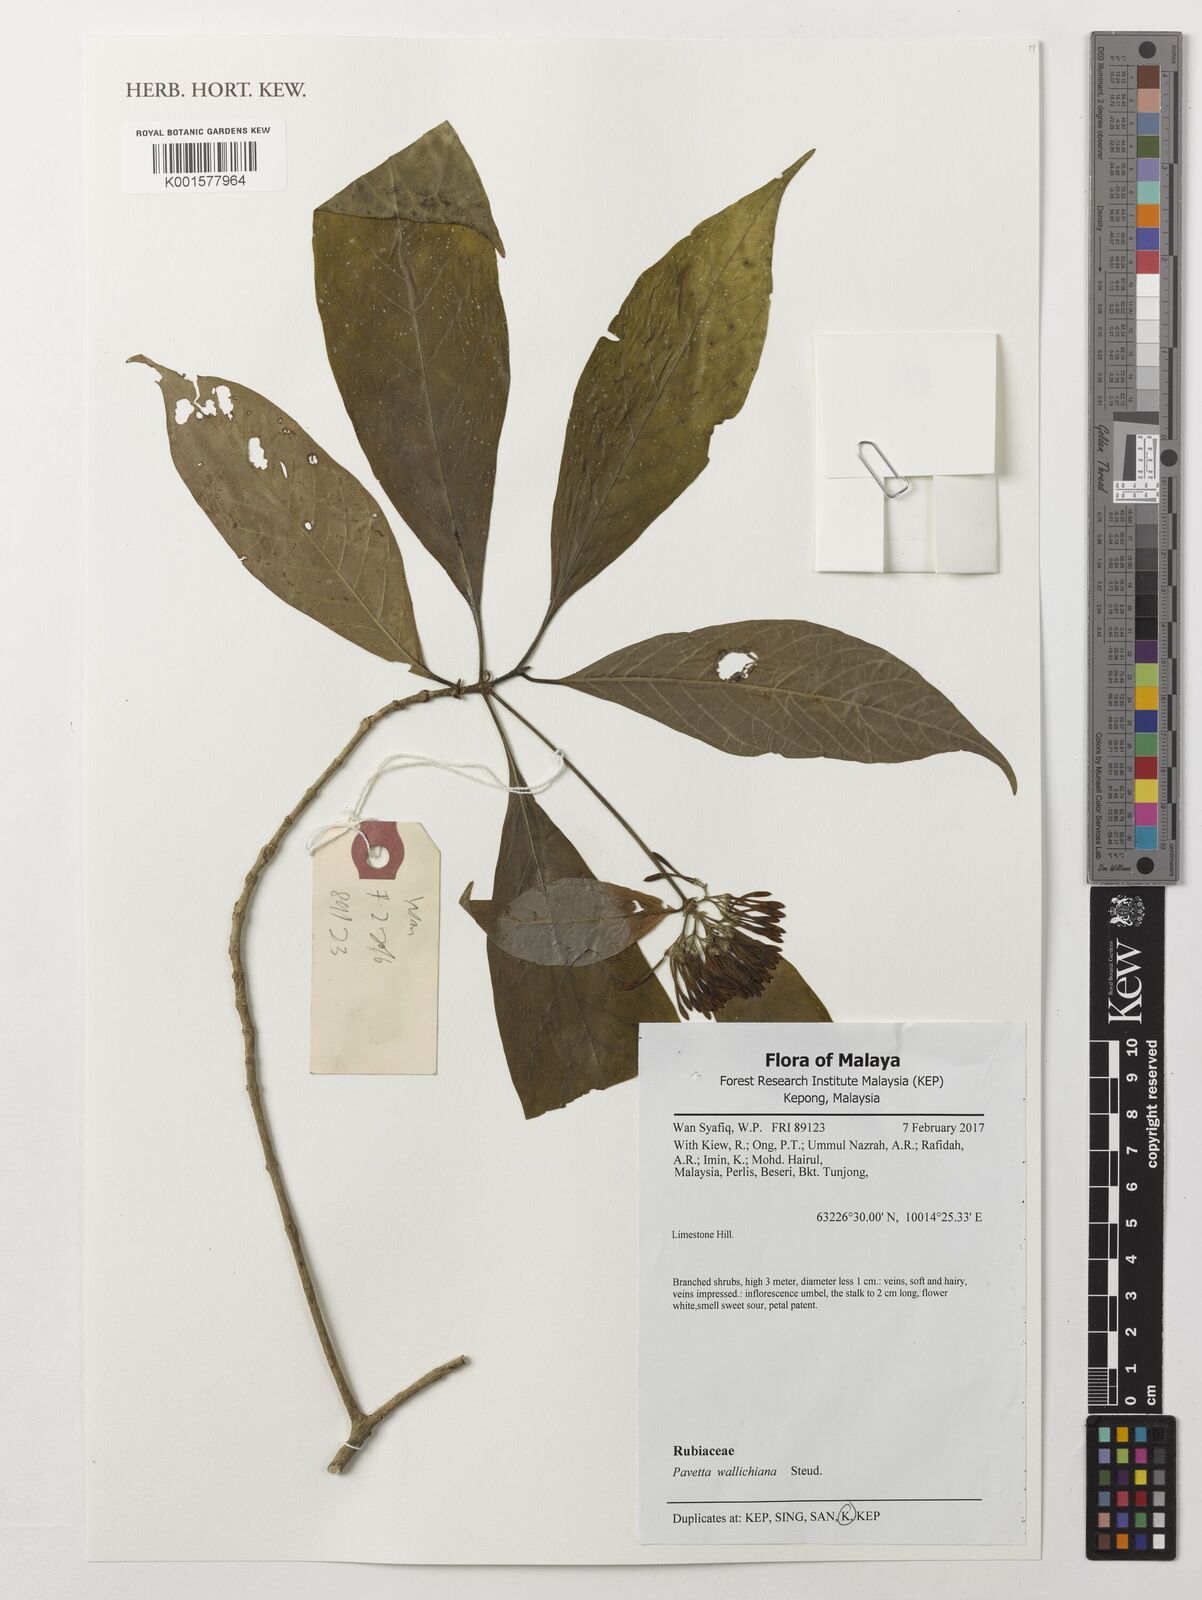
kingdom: Plantae
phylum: Tracheophyta
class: Magnoliopsida
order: Gentianales
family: Rubiaceae
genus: Pavetta
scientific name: Pavetta wallichiana
